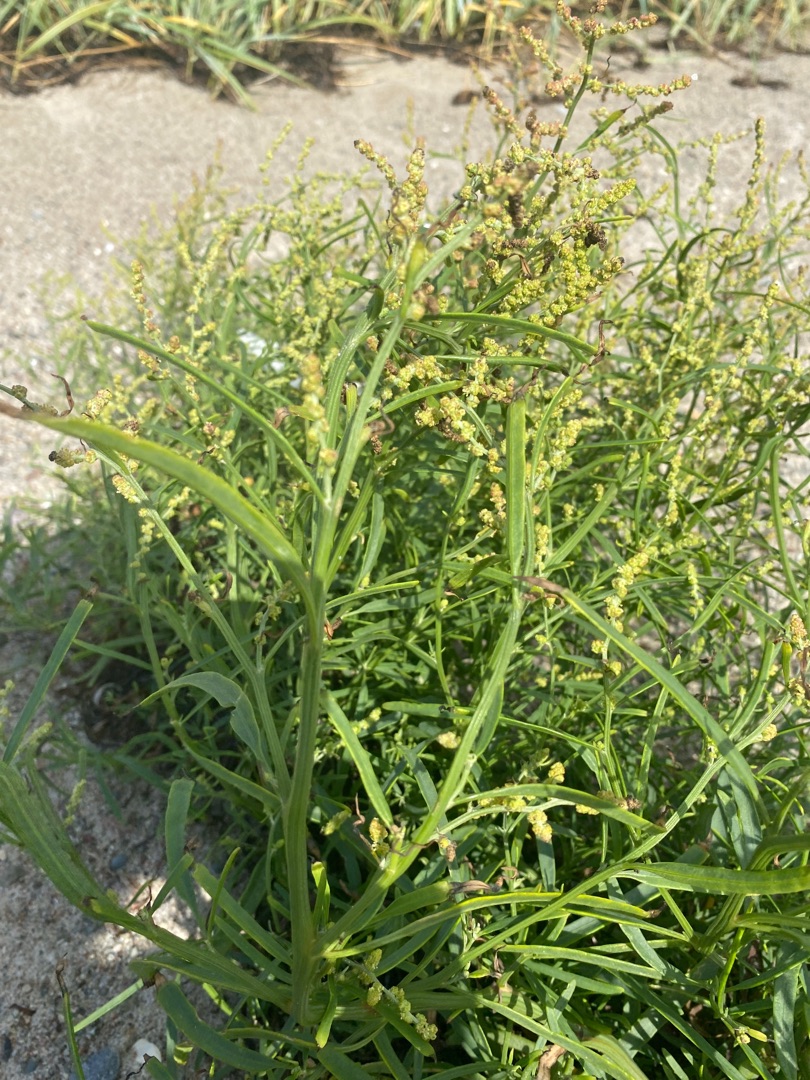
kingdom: Plantae
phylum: Tracheophyta
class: Magnoliopsida
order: Caryophyllales
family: Amaranthaceae
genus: Atriplex
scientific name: Atriplex littoralis
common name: Strand-mælde
